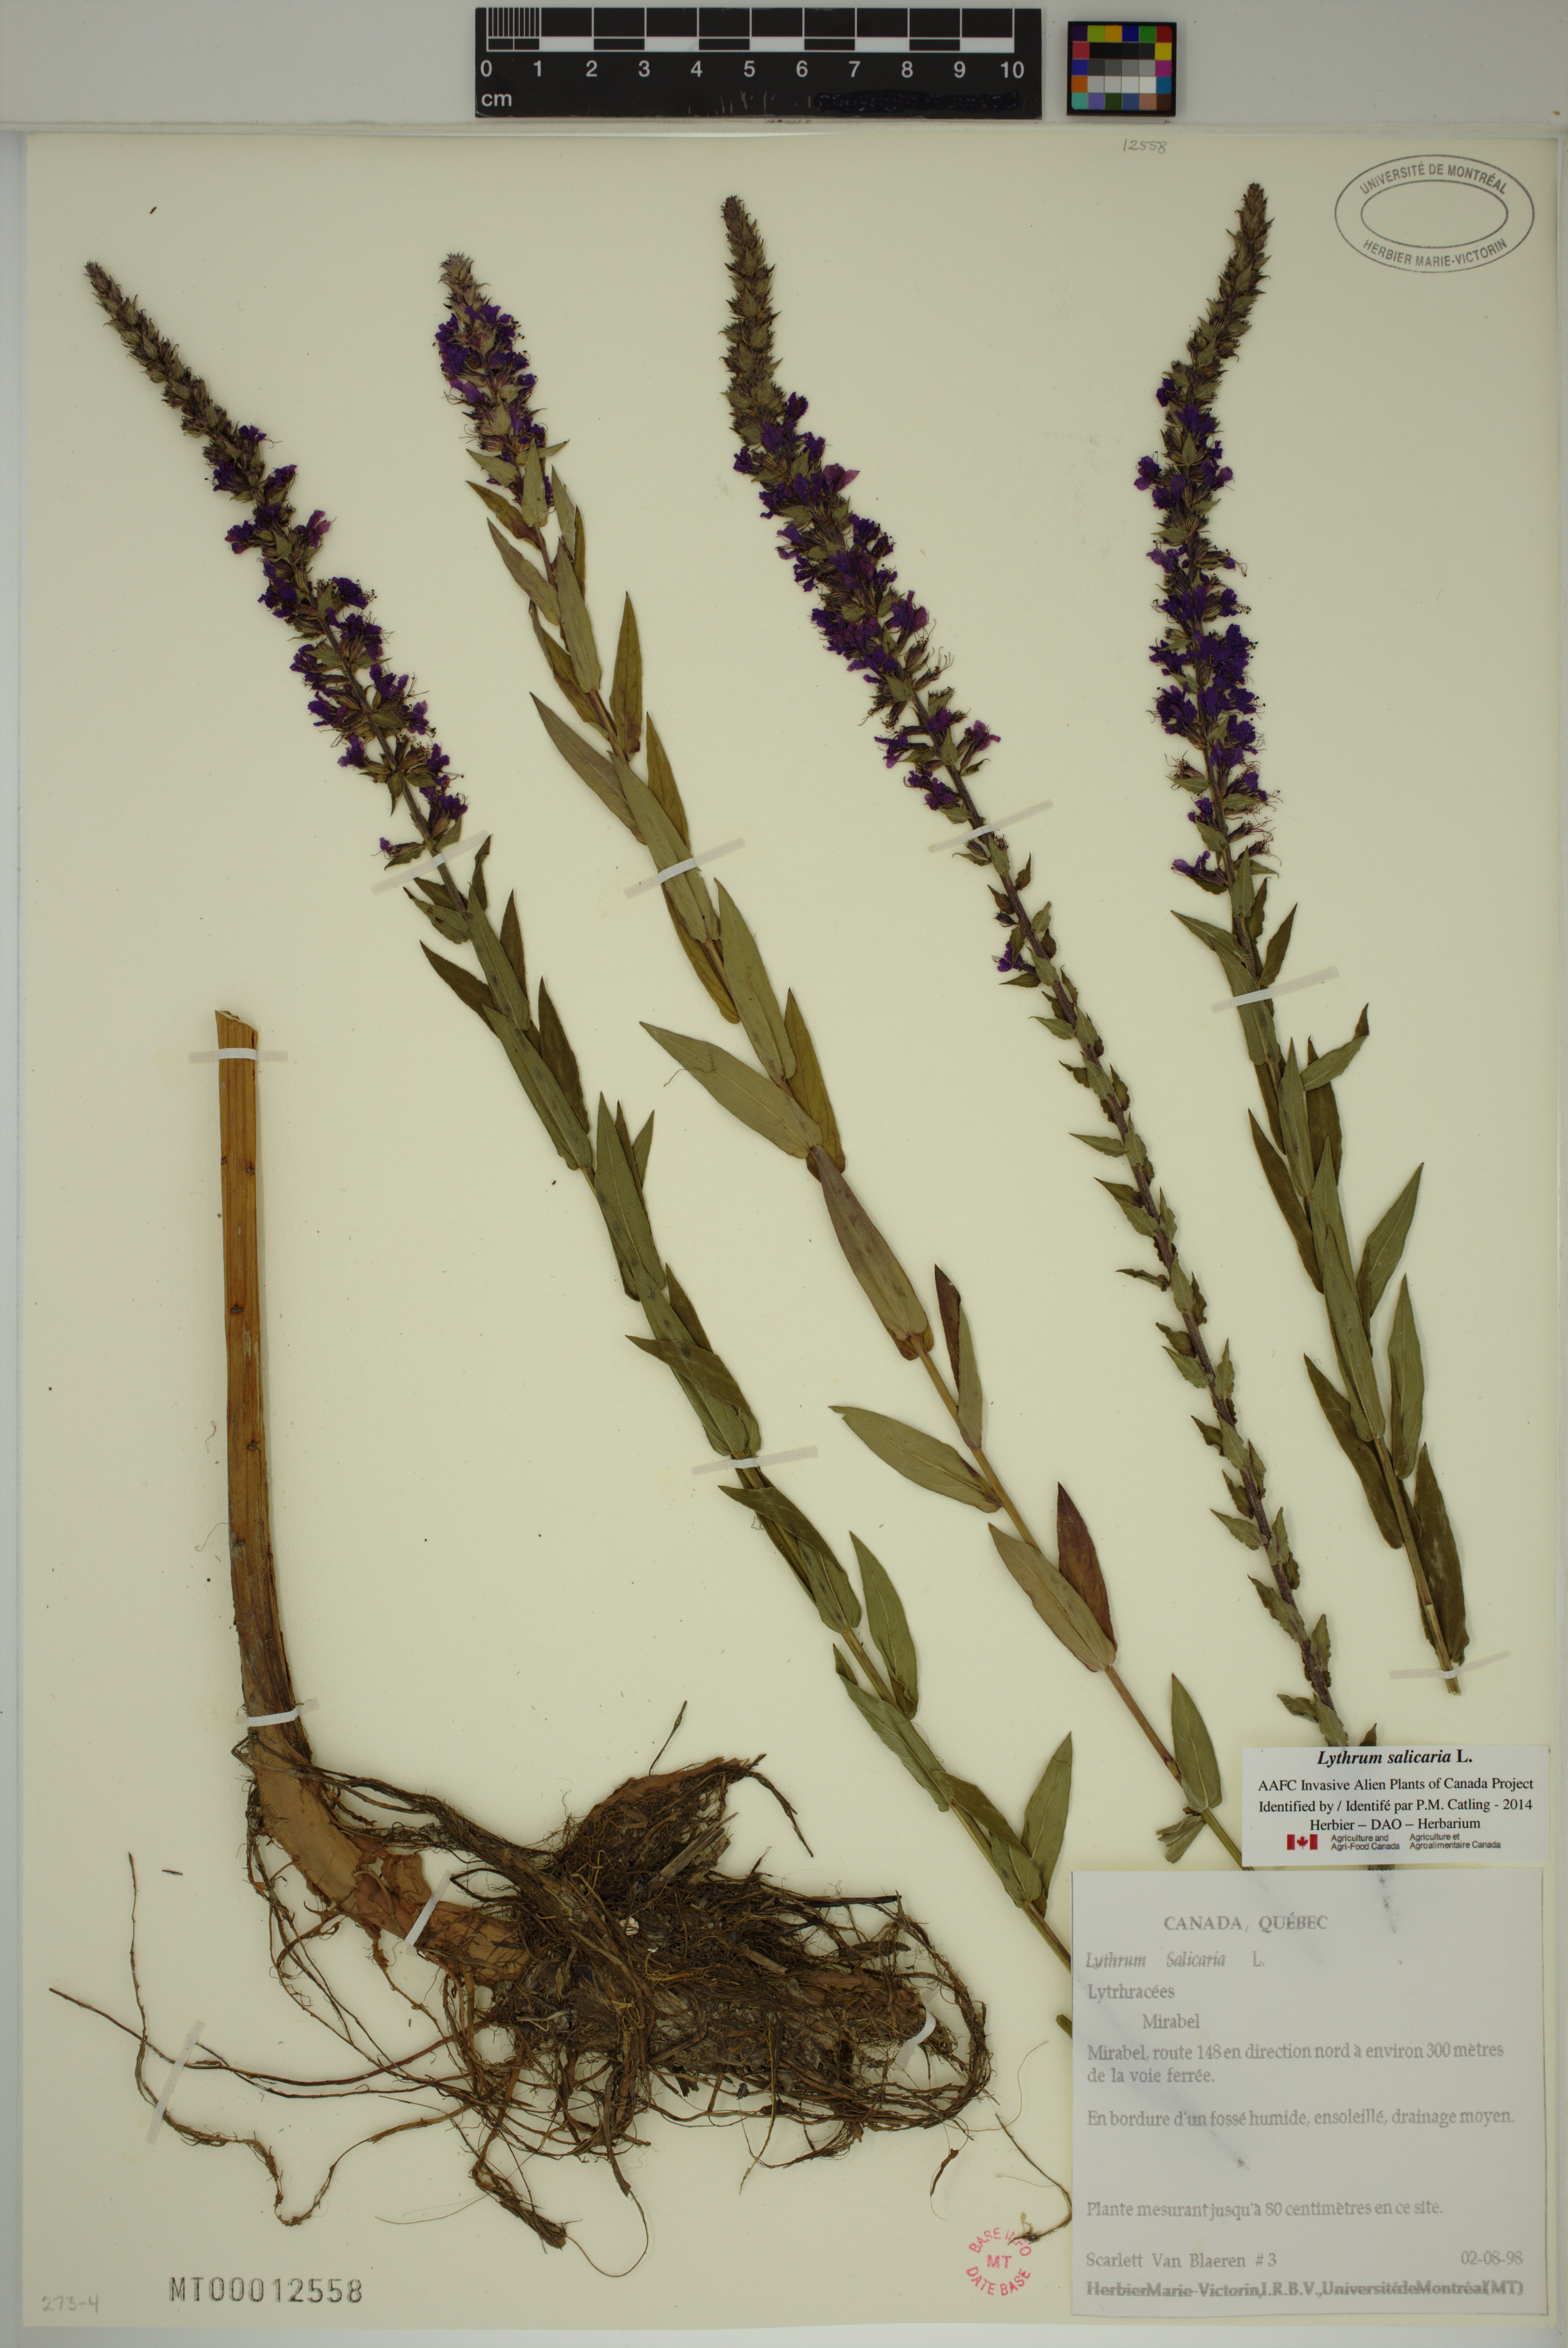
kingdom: Plantae
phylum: Tracheophyta
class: Magnoliopsida
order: Myrtales
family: Lythraceae
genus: Lythrum
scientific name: Lythrum salicaria
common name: Purple loosestrife
